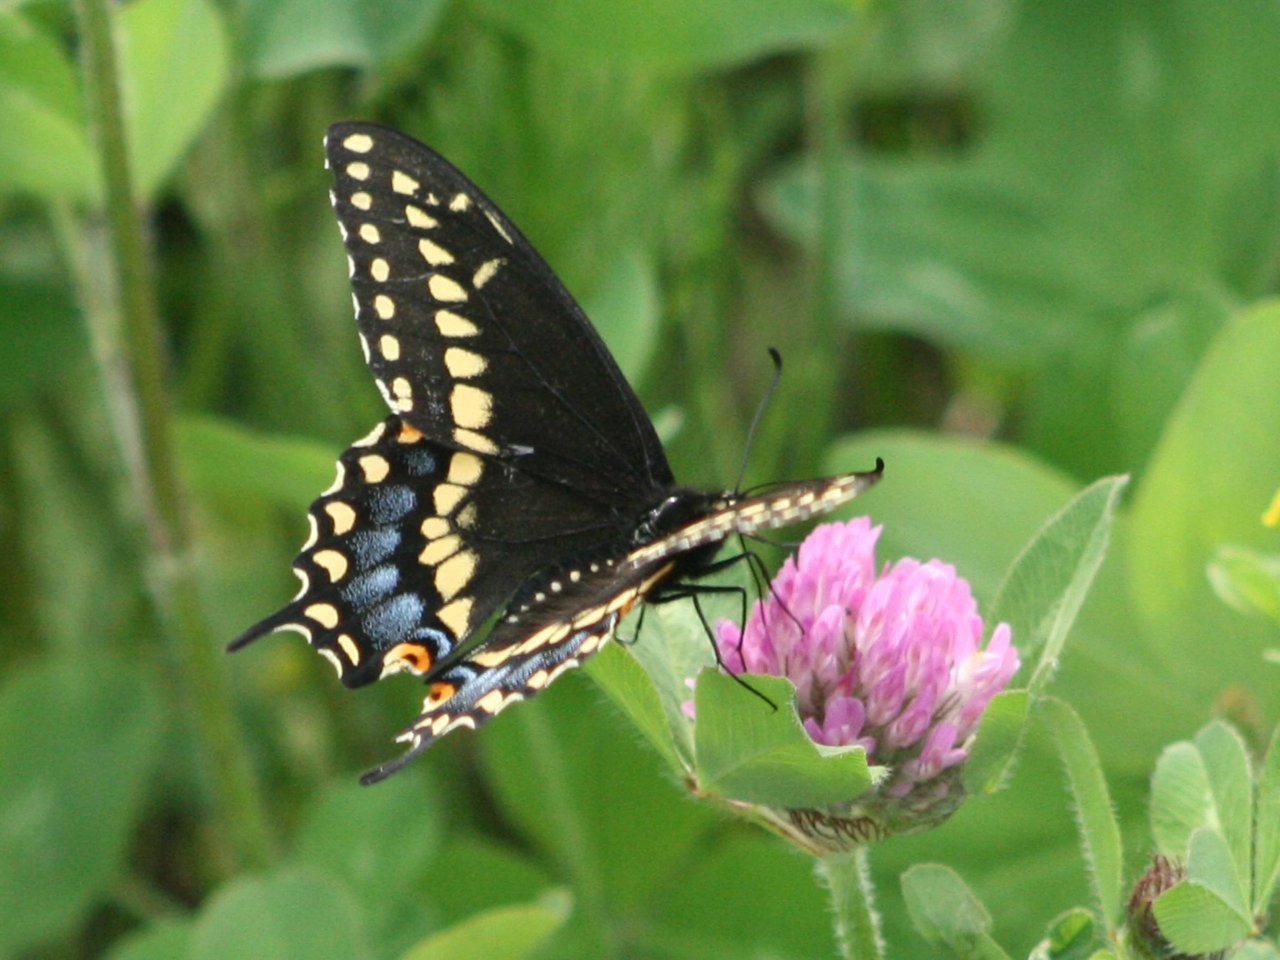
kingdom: Animalia
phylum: Arthropoda
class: Insecta
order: Lepidoptera
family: Papilionidae
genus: Papilio
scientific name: Papilio polyxenes
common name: Black Swallowtail
